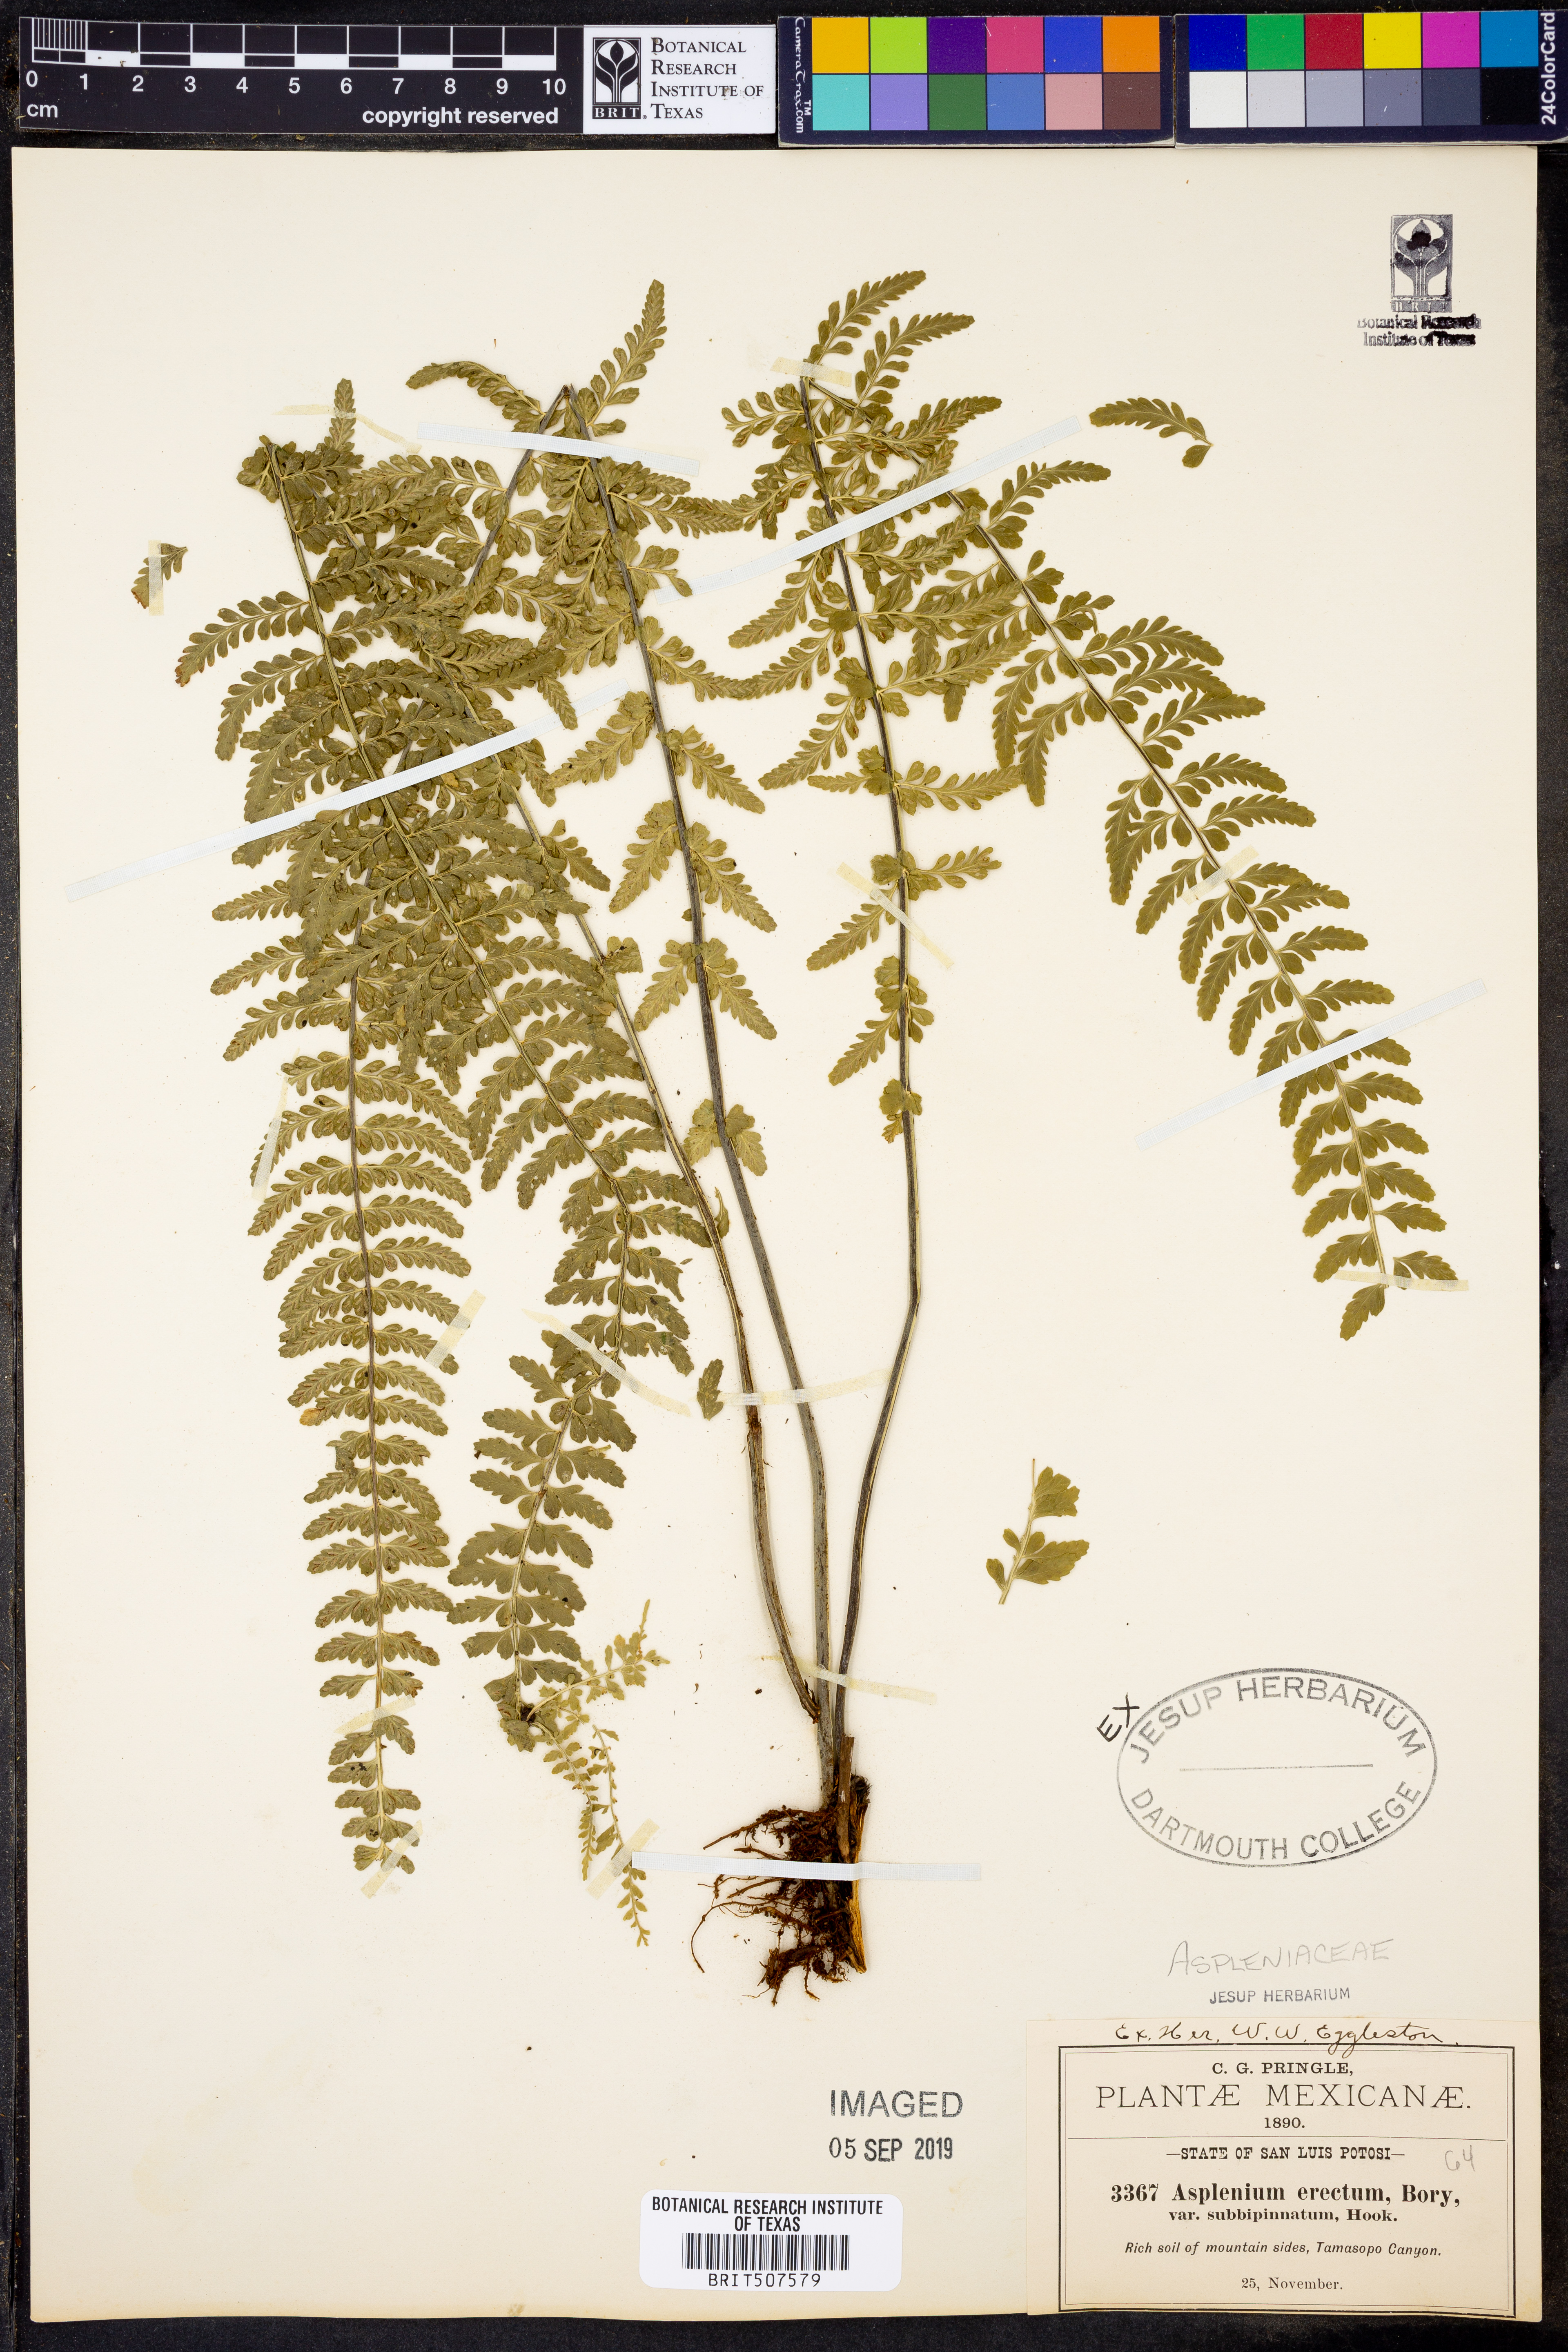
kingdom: Plantae
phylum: Tracheophyta
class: Polypodiopsida
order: Polypodiales
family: Aspleniaceae
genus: Asplenium
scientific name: Asplenium
